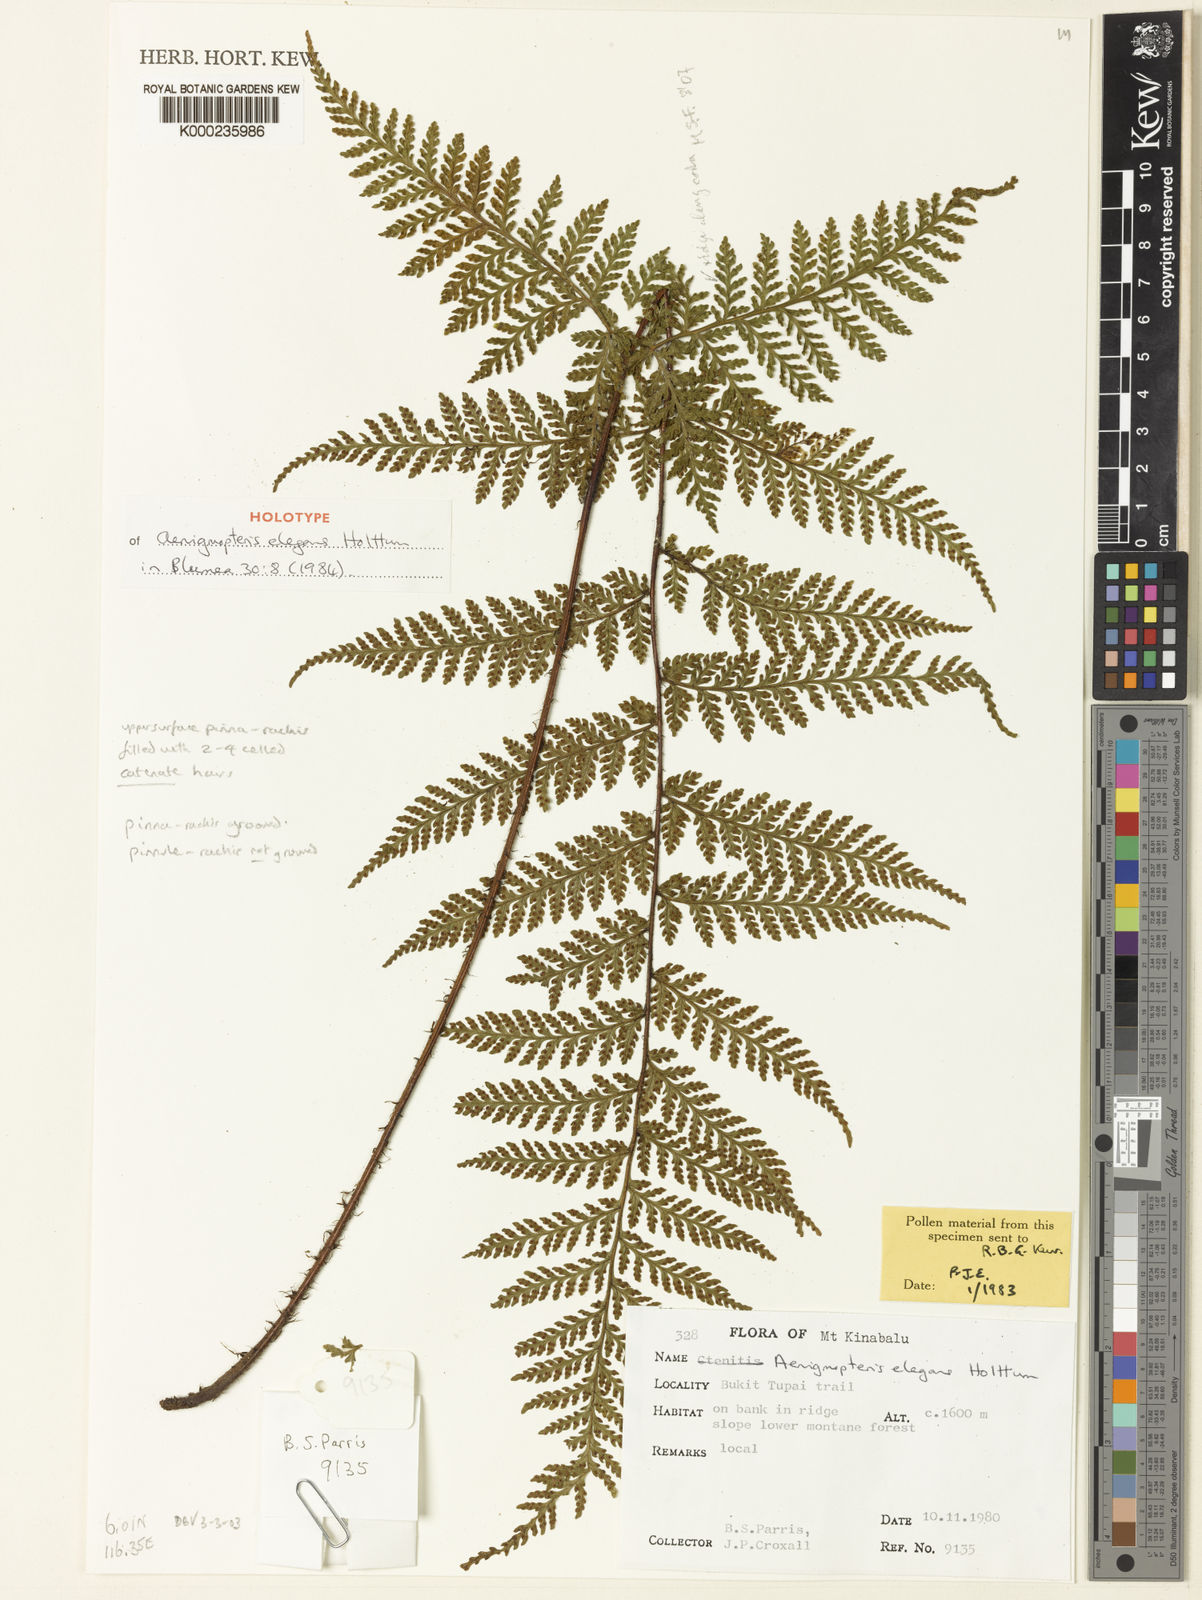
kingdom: Plantae
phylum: Tracheophyta
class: Polypodiopsida
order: Polypodiales
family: Tectariaceae
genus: Tectaria
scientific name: Tectaria sabahensis
